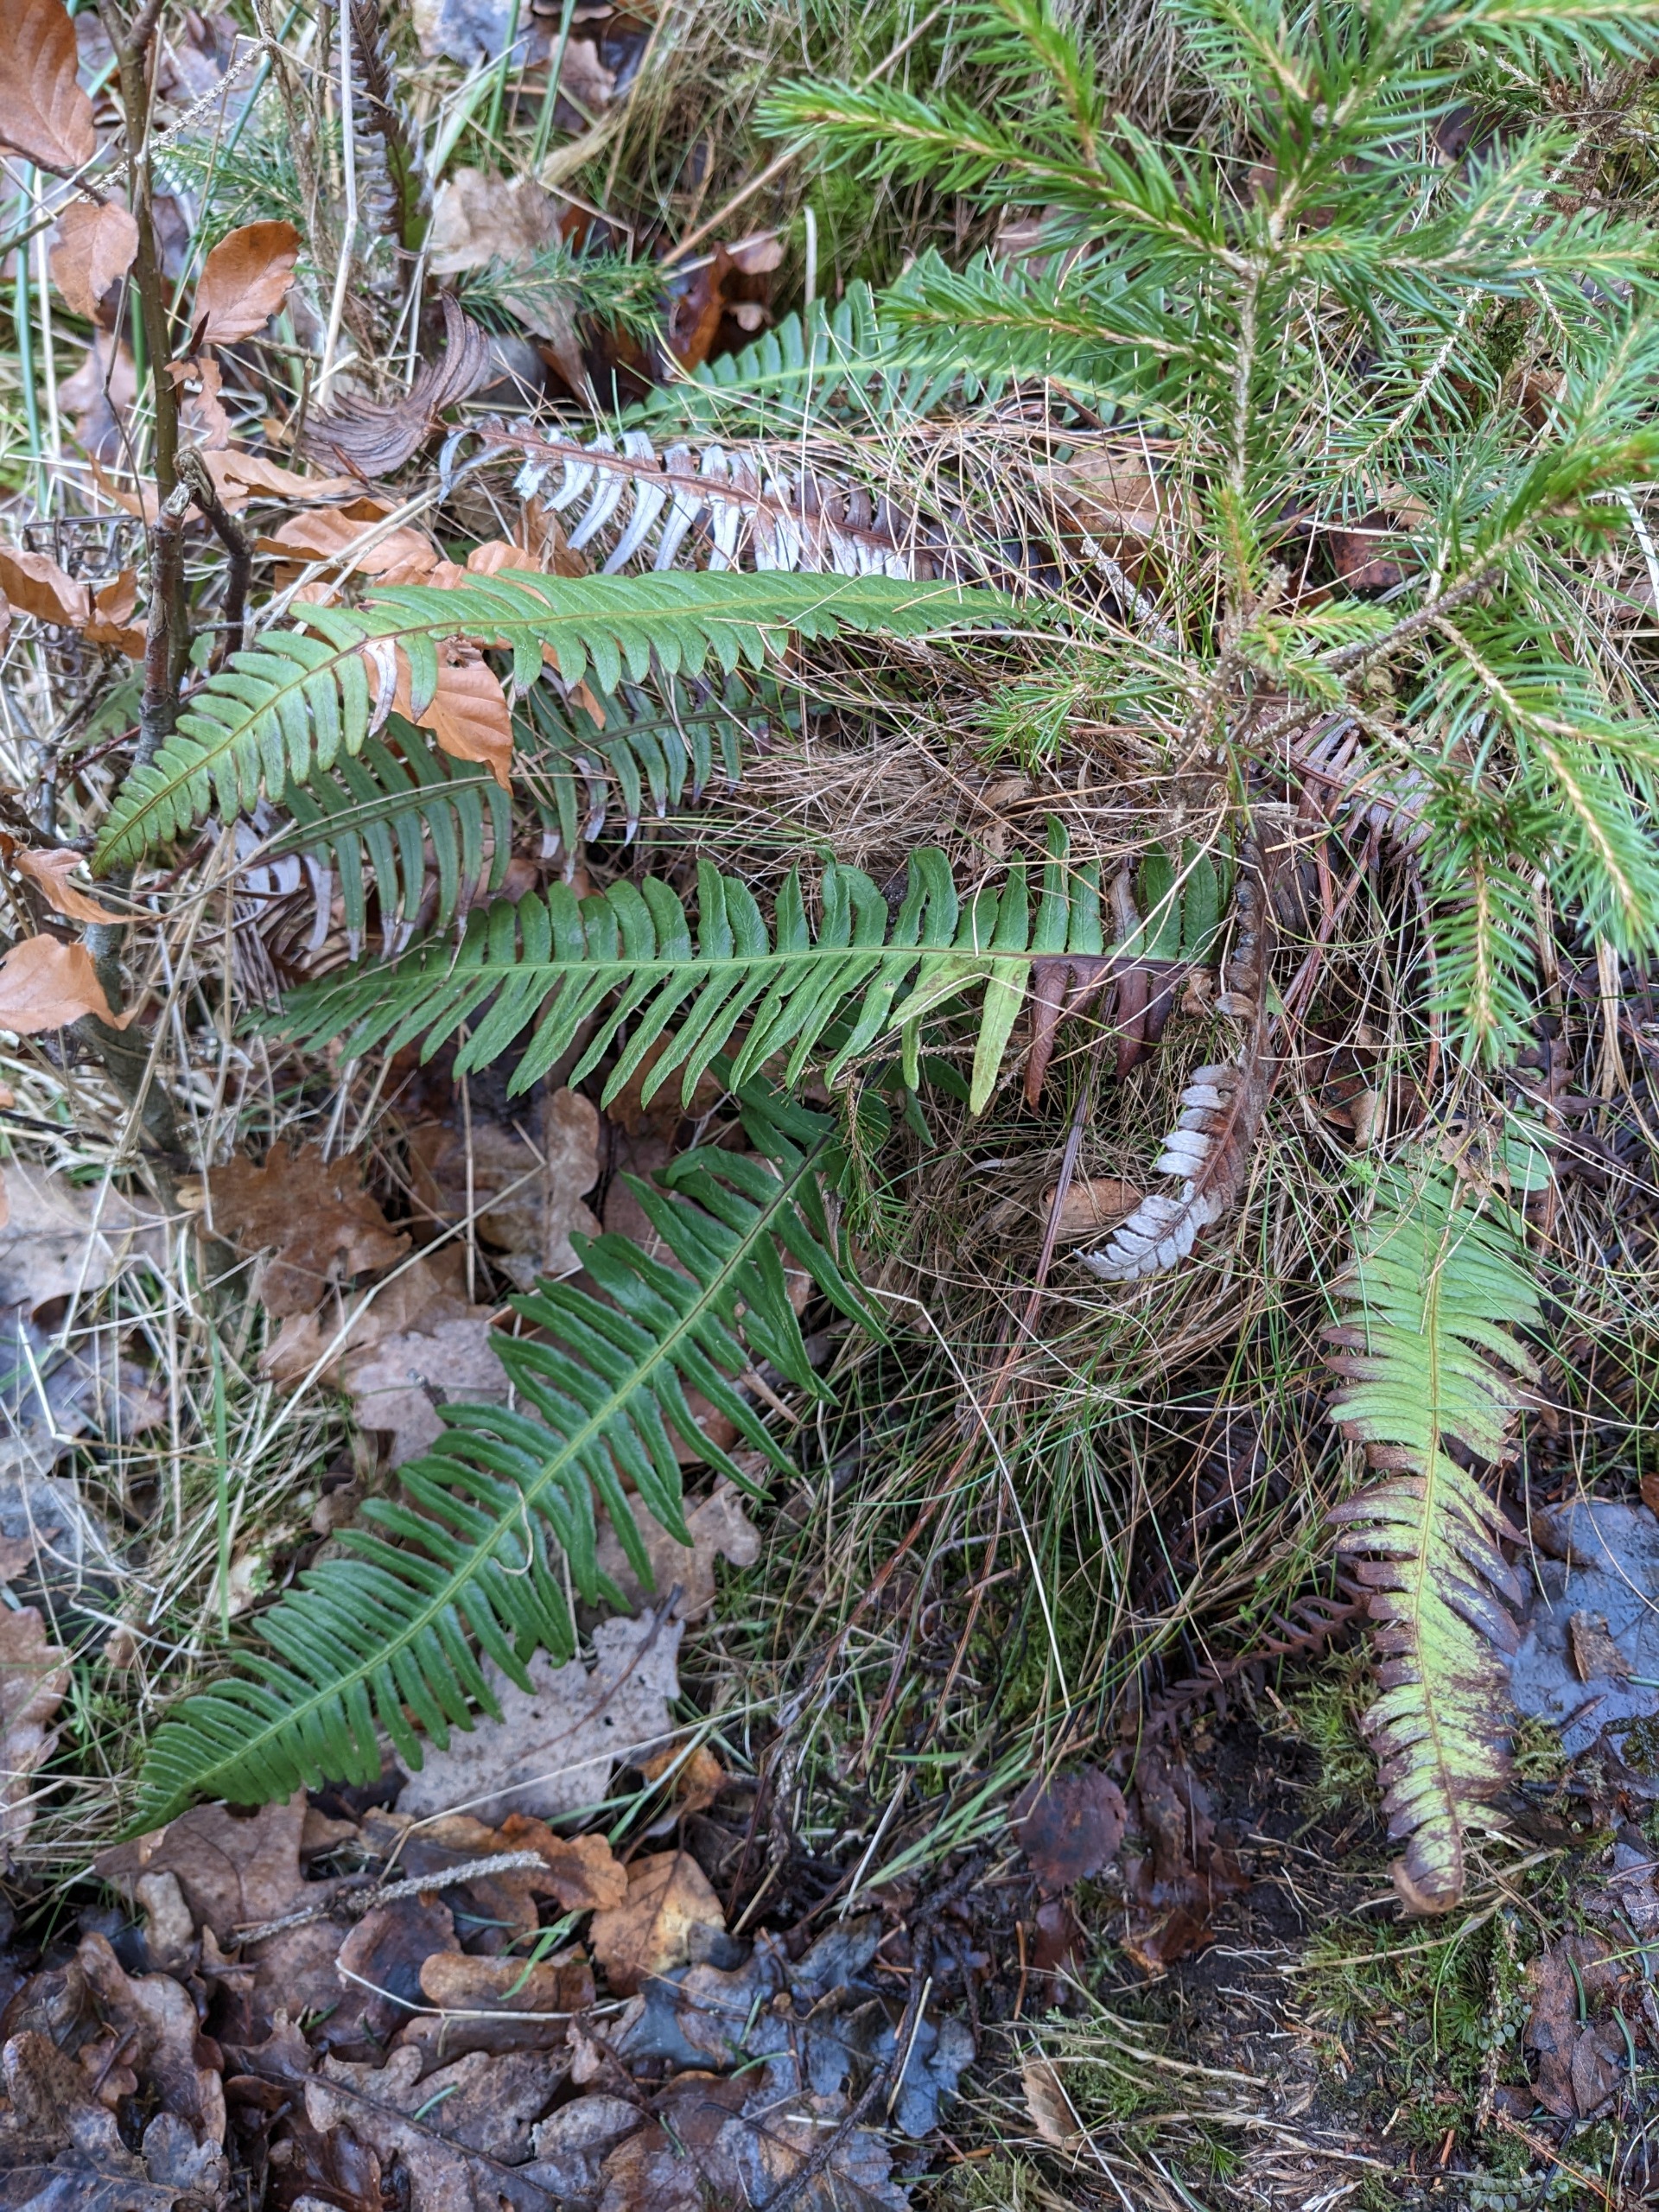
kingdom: Plantae
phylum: Tracheophyta
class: Polypodiopsida
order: Polypodiales
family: Blechnaceae
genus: Struthiopteris
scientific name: Struthiopteris spicant
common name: Kambregne
